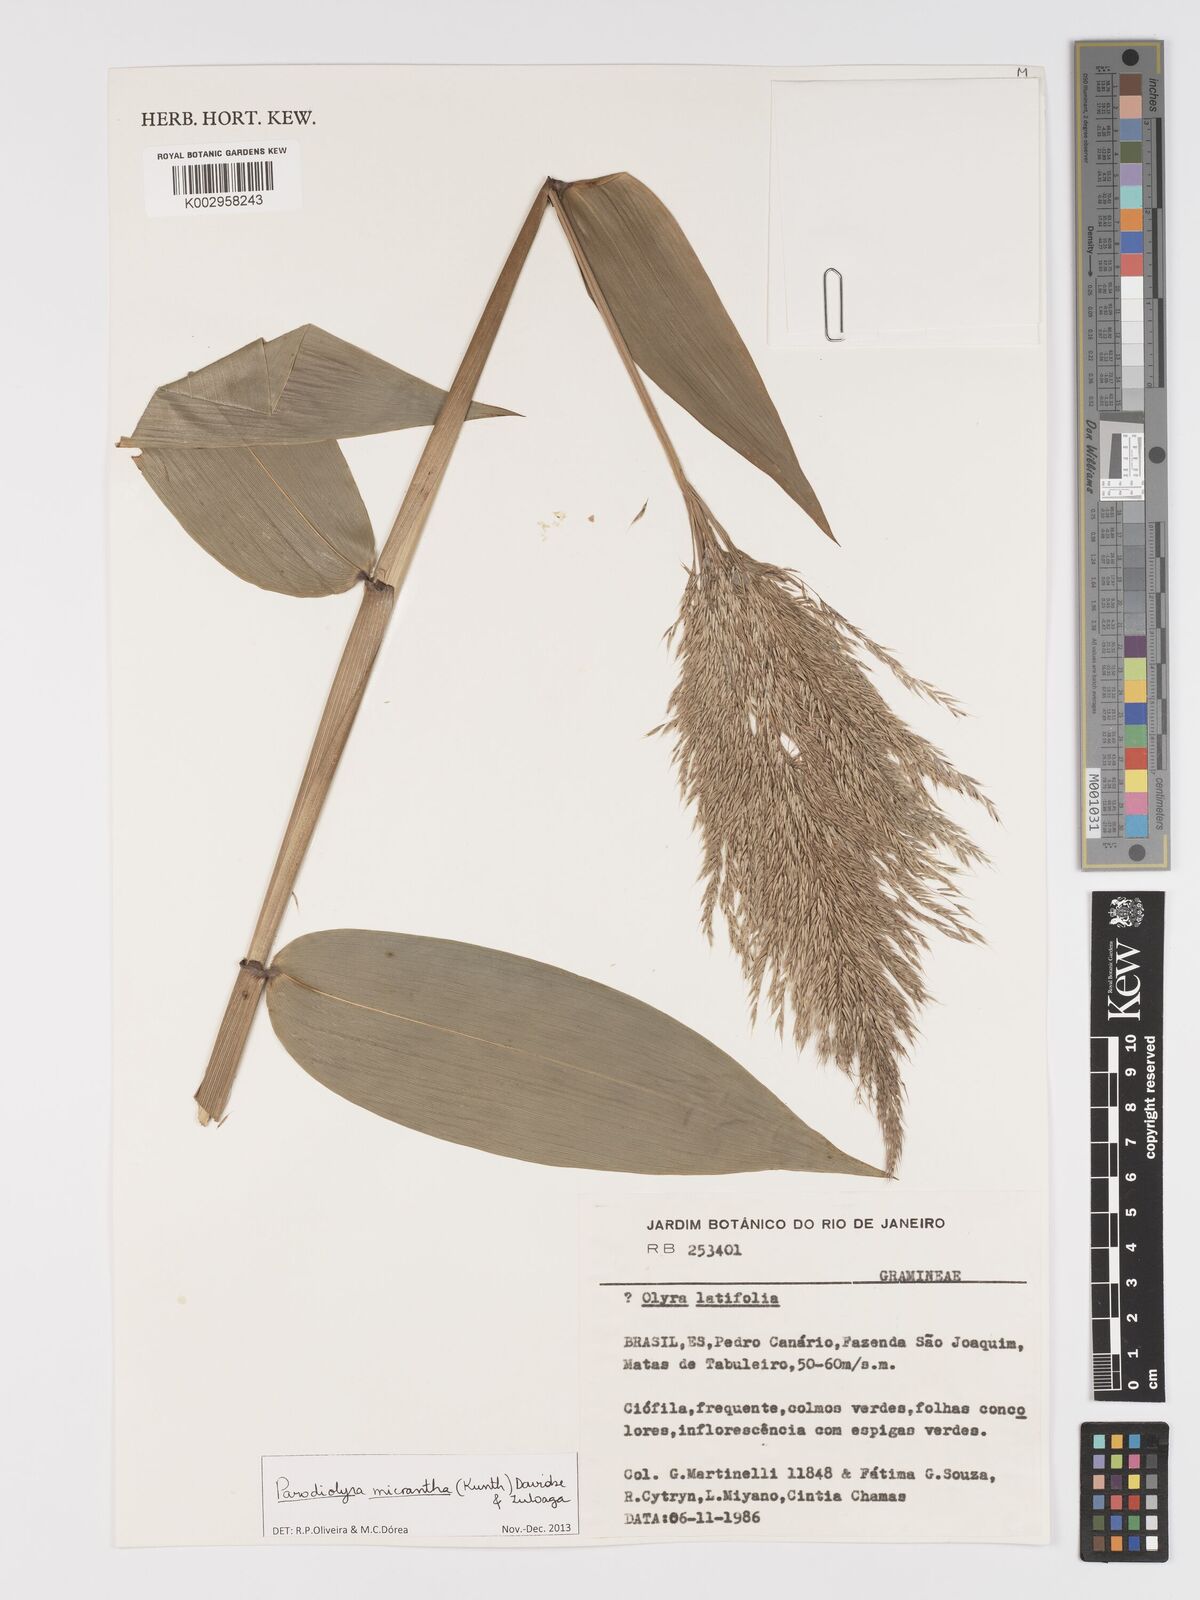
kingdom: Plantae
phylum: Tracheophyta
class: Liliopsida
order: Poales
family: Poaceae
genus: Taquara
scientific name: Taquara micrantha
